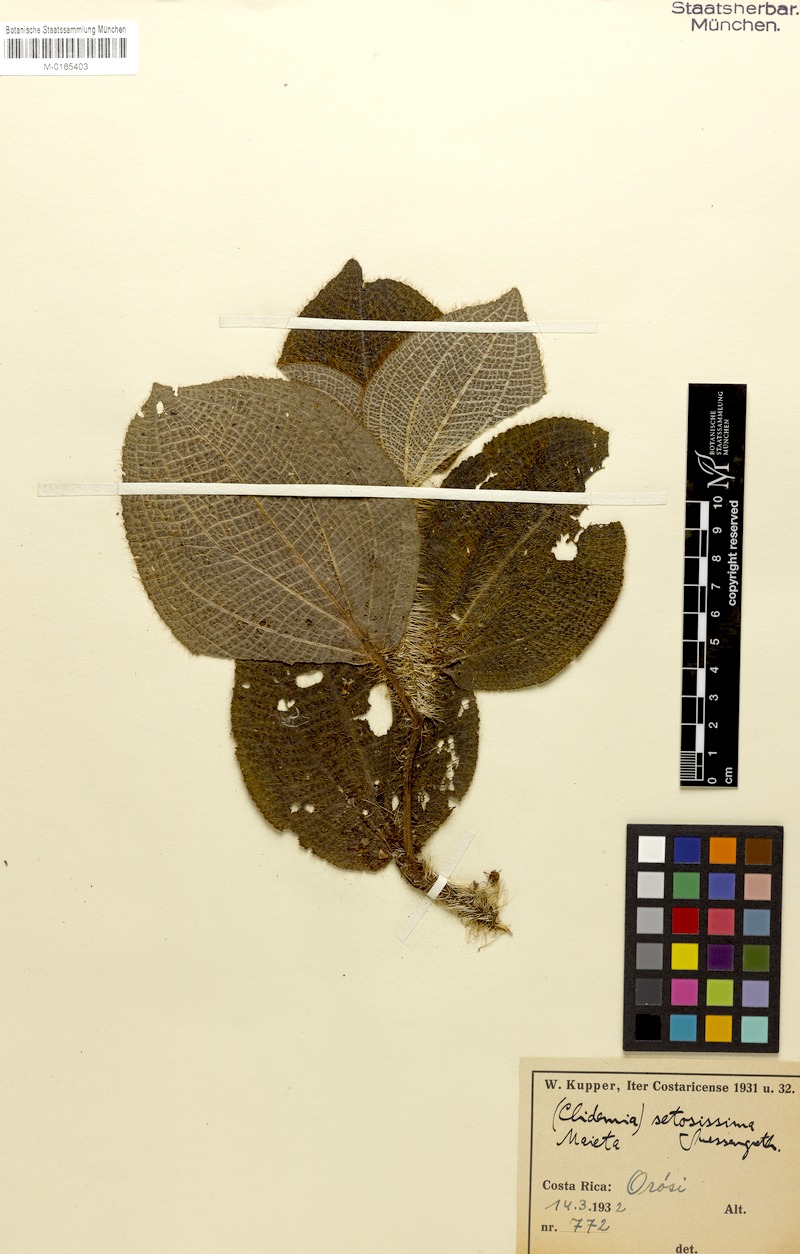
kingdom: Plantae
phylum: Tracheophyta
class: Magnoliopsida
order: Myrtales
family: Melastomataceae
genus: Miconia
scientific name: Miconia spectabilis
